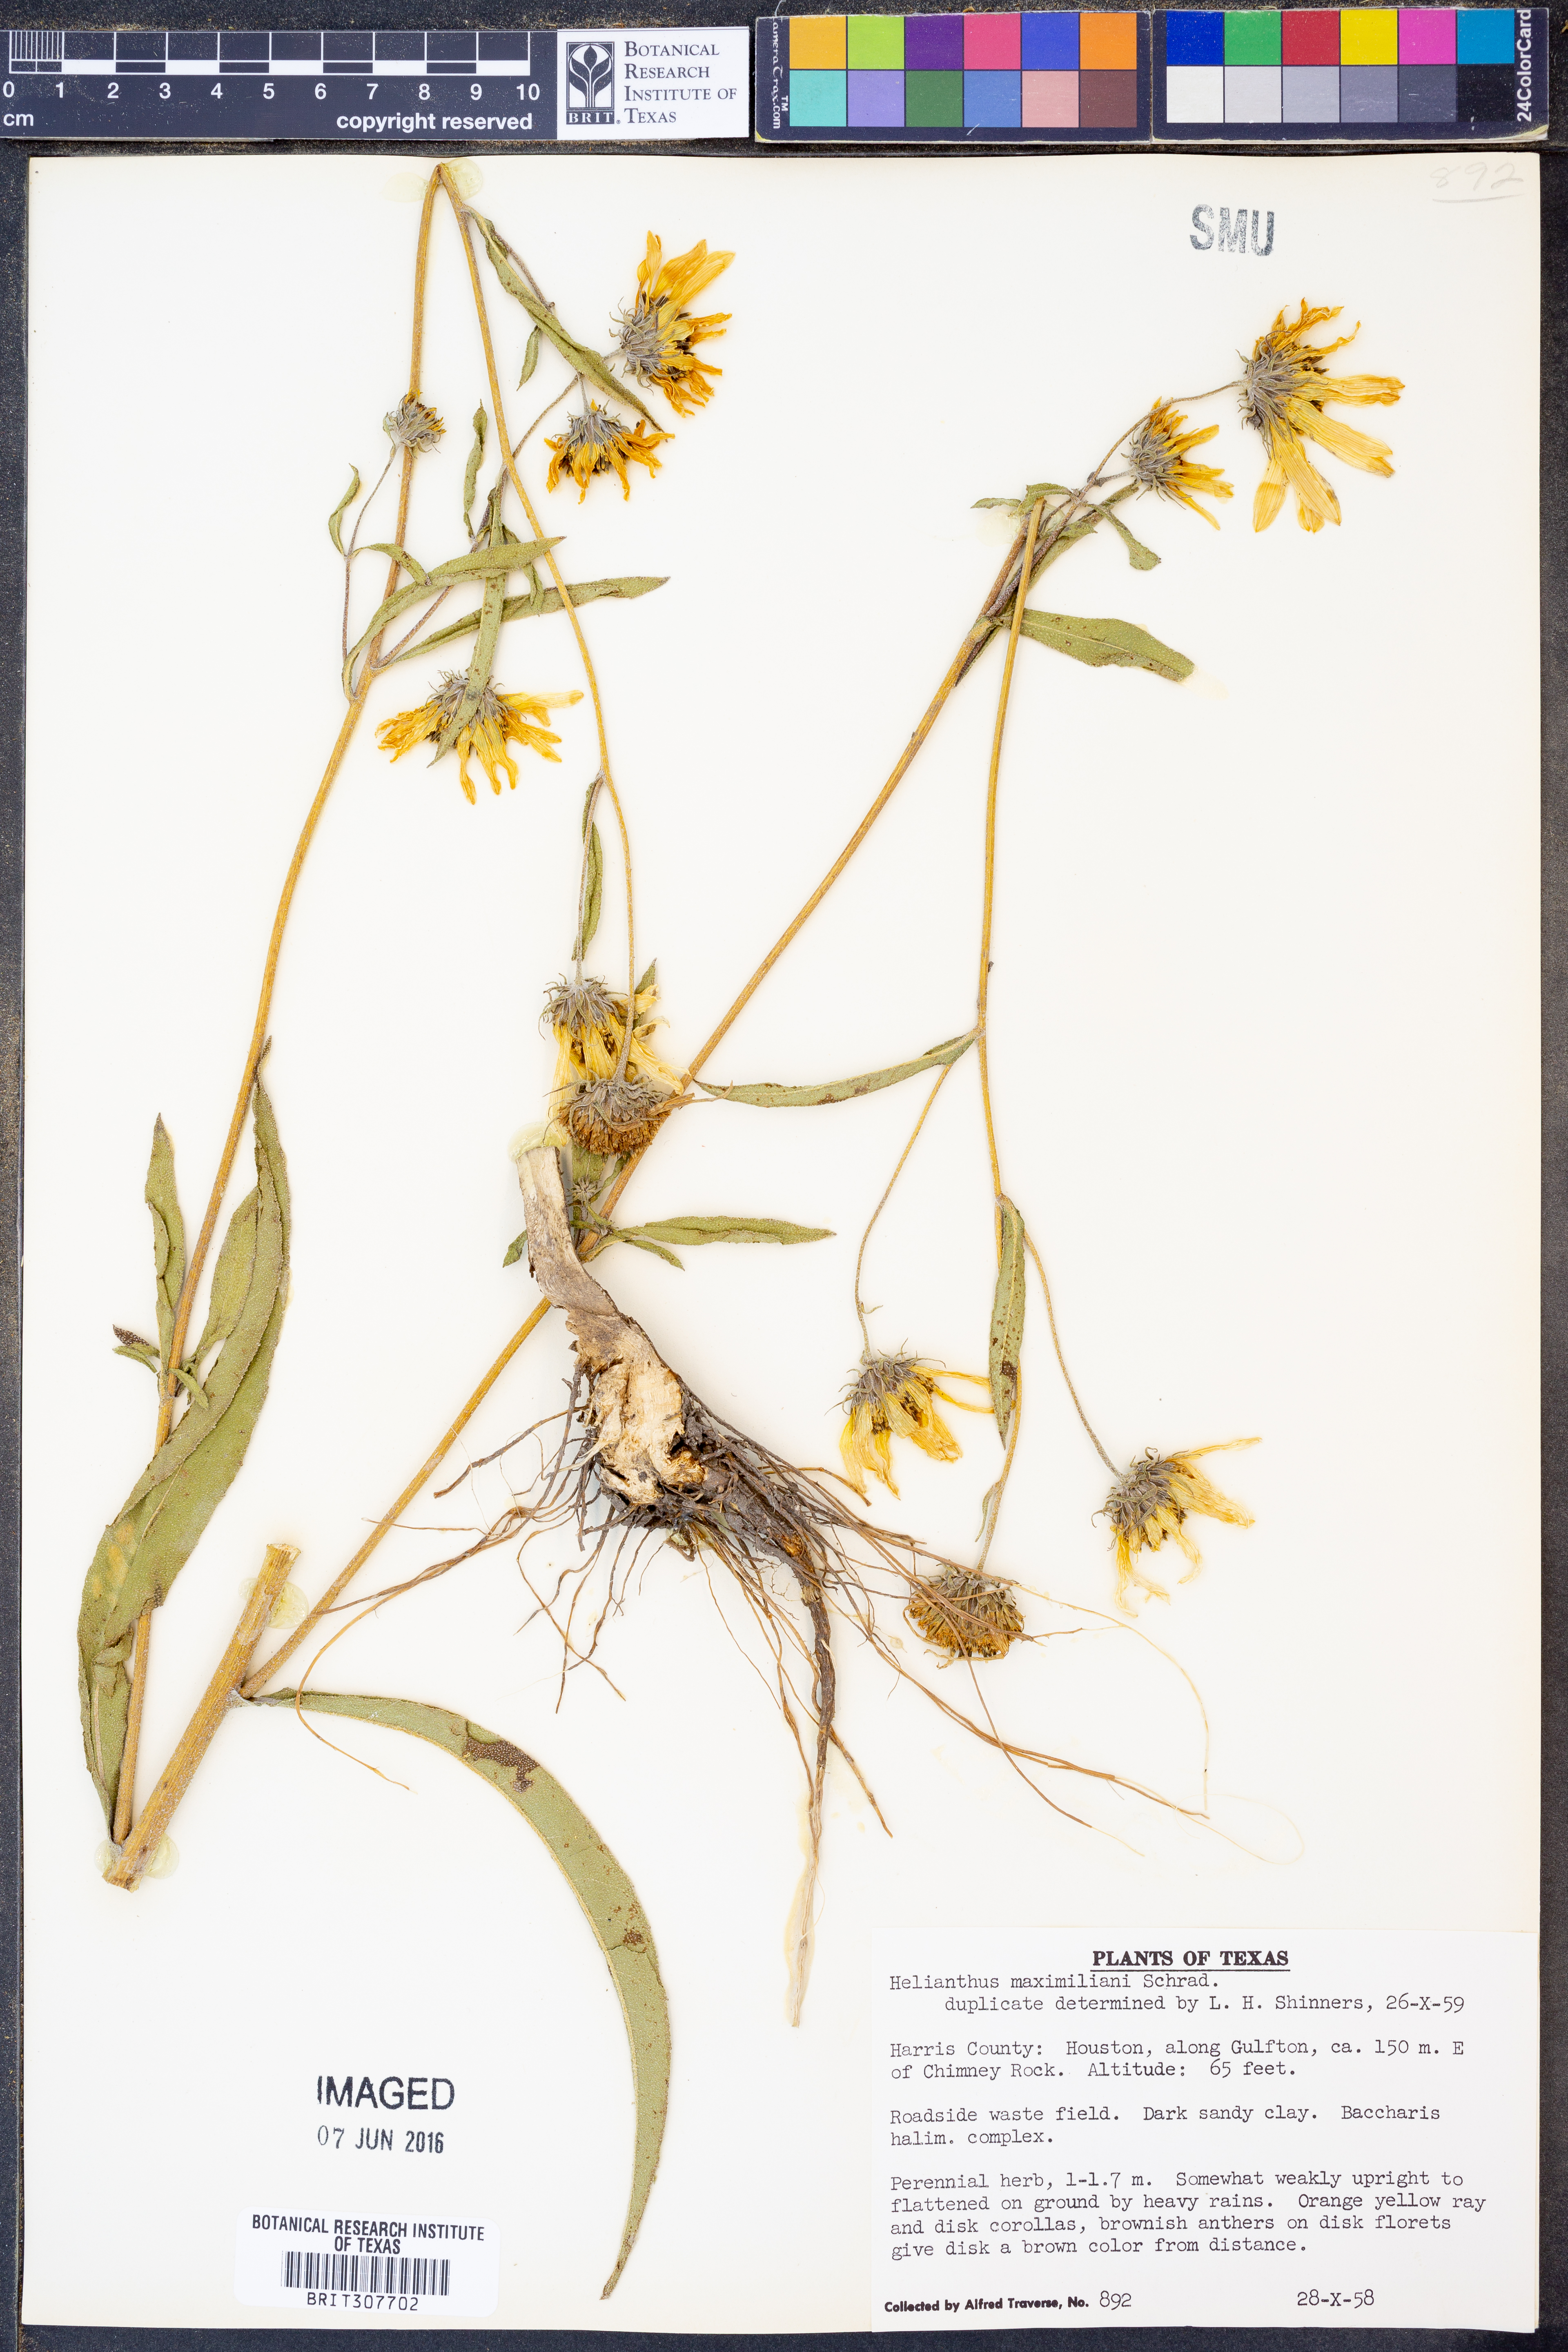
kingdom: Plantae
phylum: Tracheophyta
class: Magnoliopsida
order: Asterales
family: Asteraceae
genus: Helianthus
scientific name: Helianthus maximiliani
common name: Maximilian's sunflower
